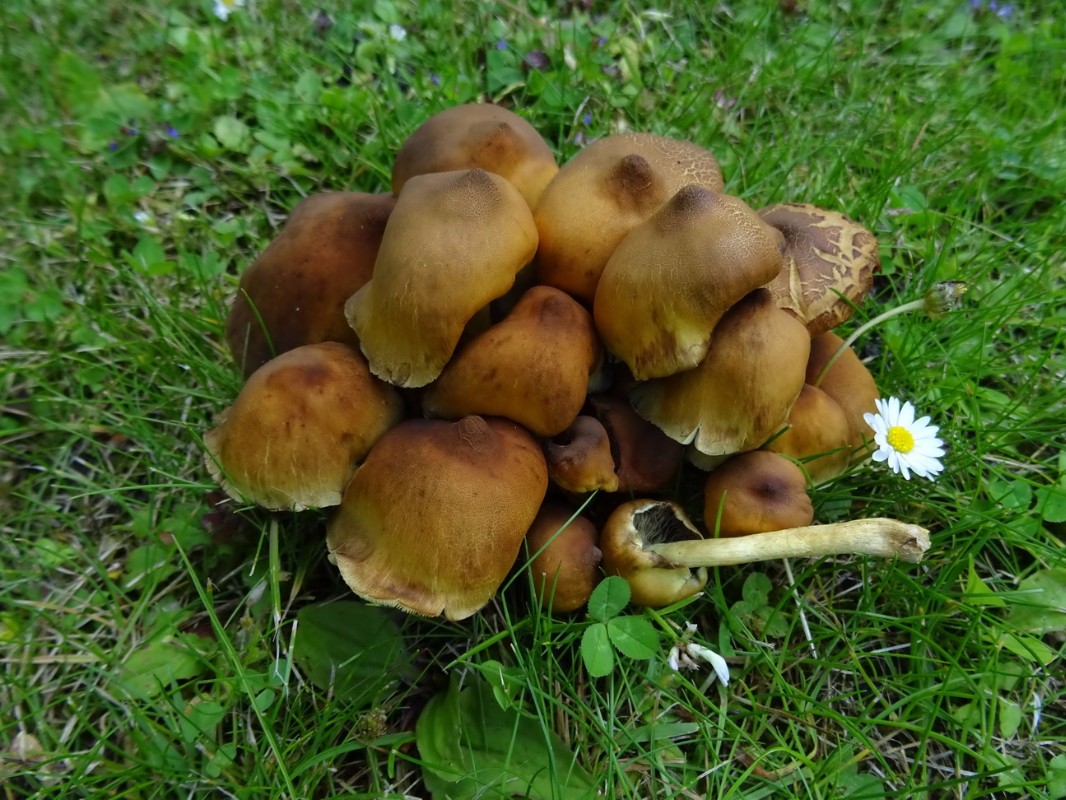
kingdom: Fungi
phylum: Basidiomycota
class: Agaricomycetes
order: Agaricales
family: Strophariaceae
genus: Hypholoma
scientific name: Hypholoma fasciculare
